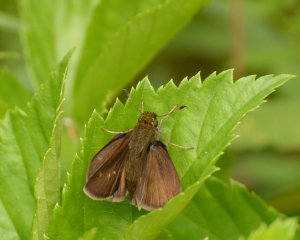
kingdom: Animalia
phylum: Arthropoda
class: Insecta
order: Lepidoptera
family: Hesperiidae
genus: Euphyes
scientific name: Euphyes vestris
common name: Dun Skipper
